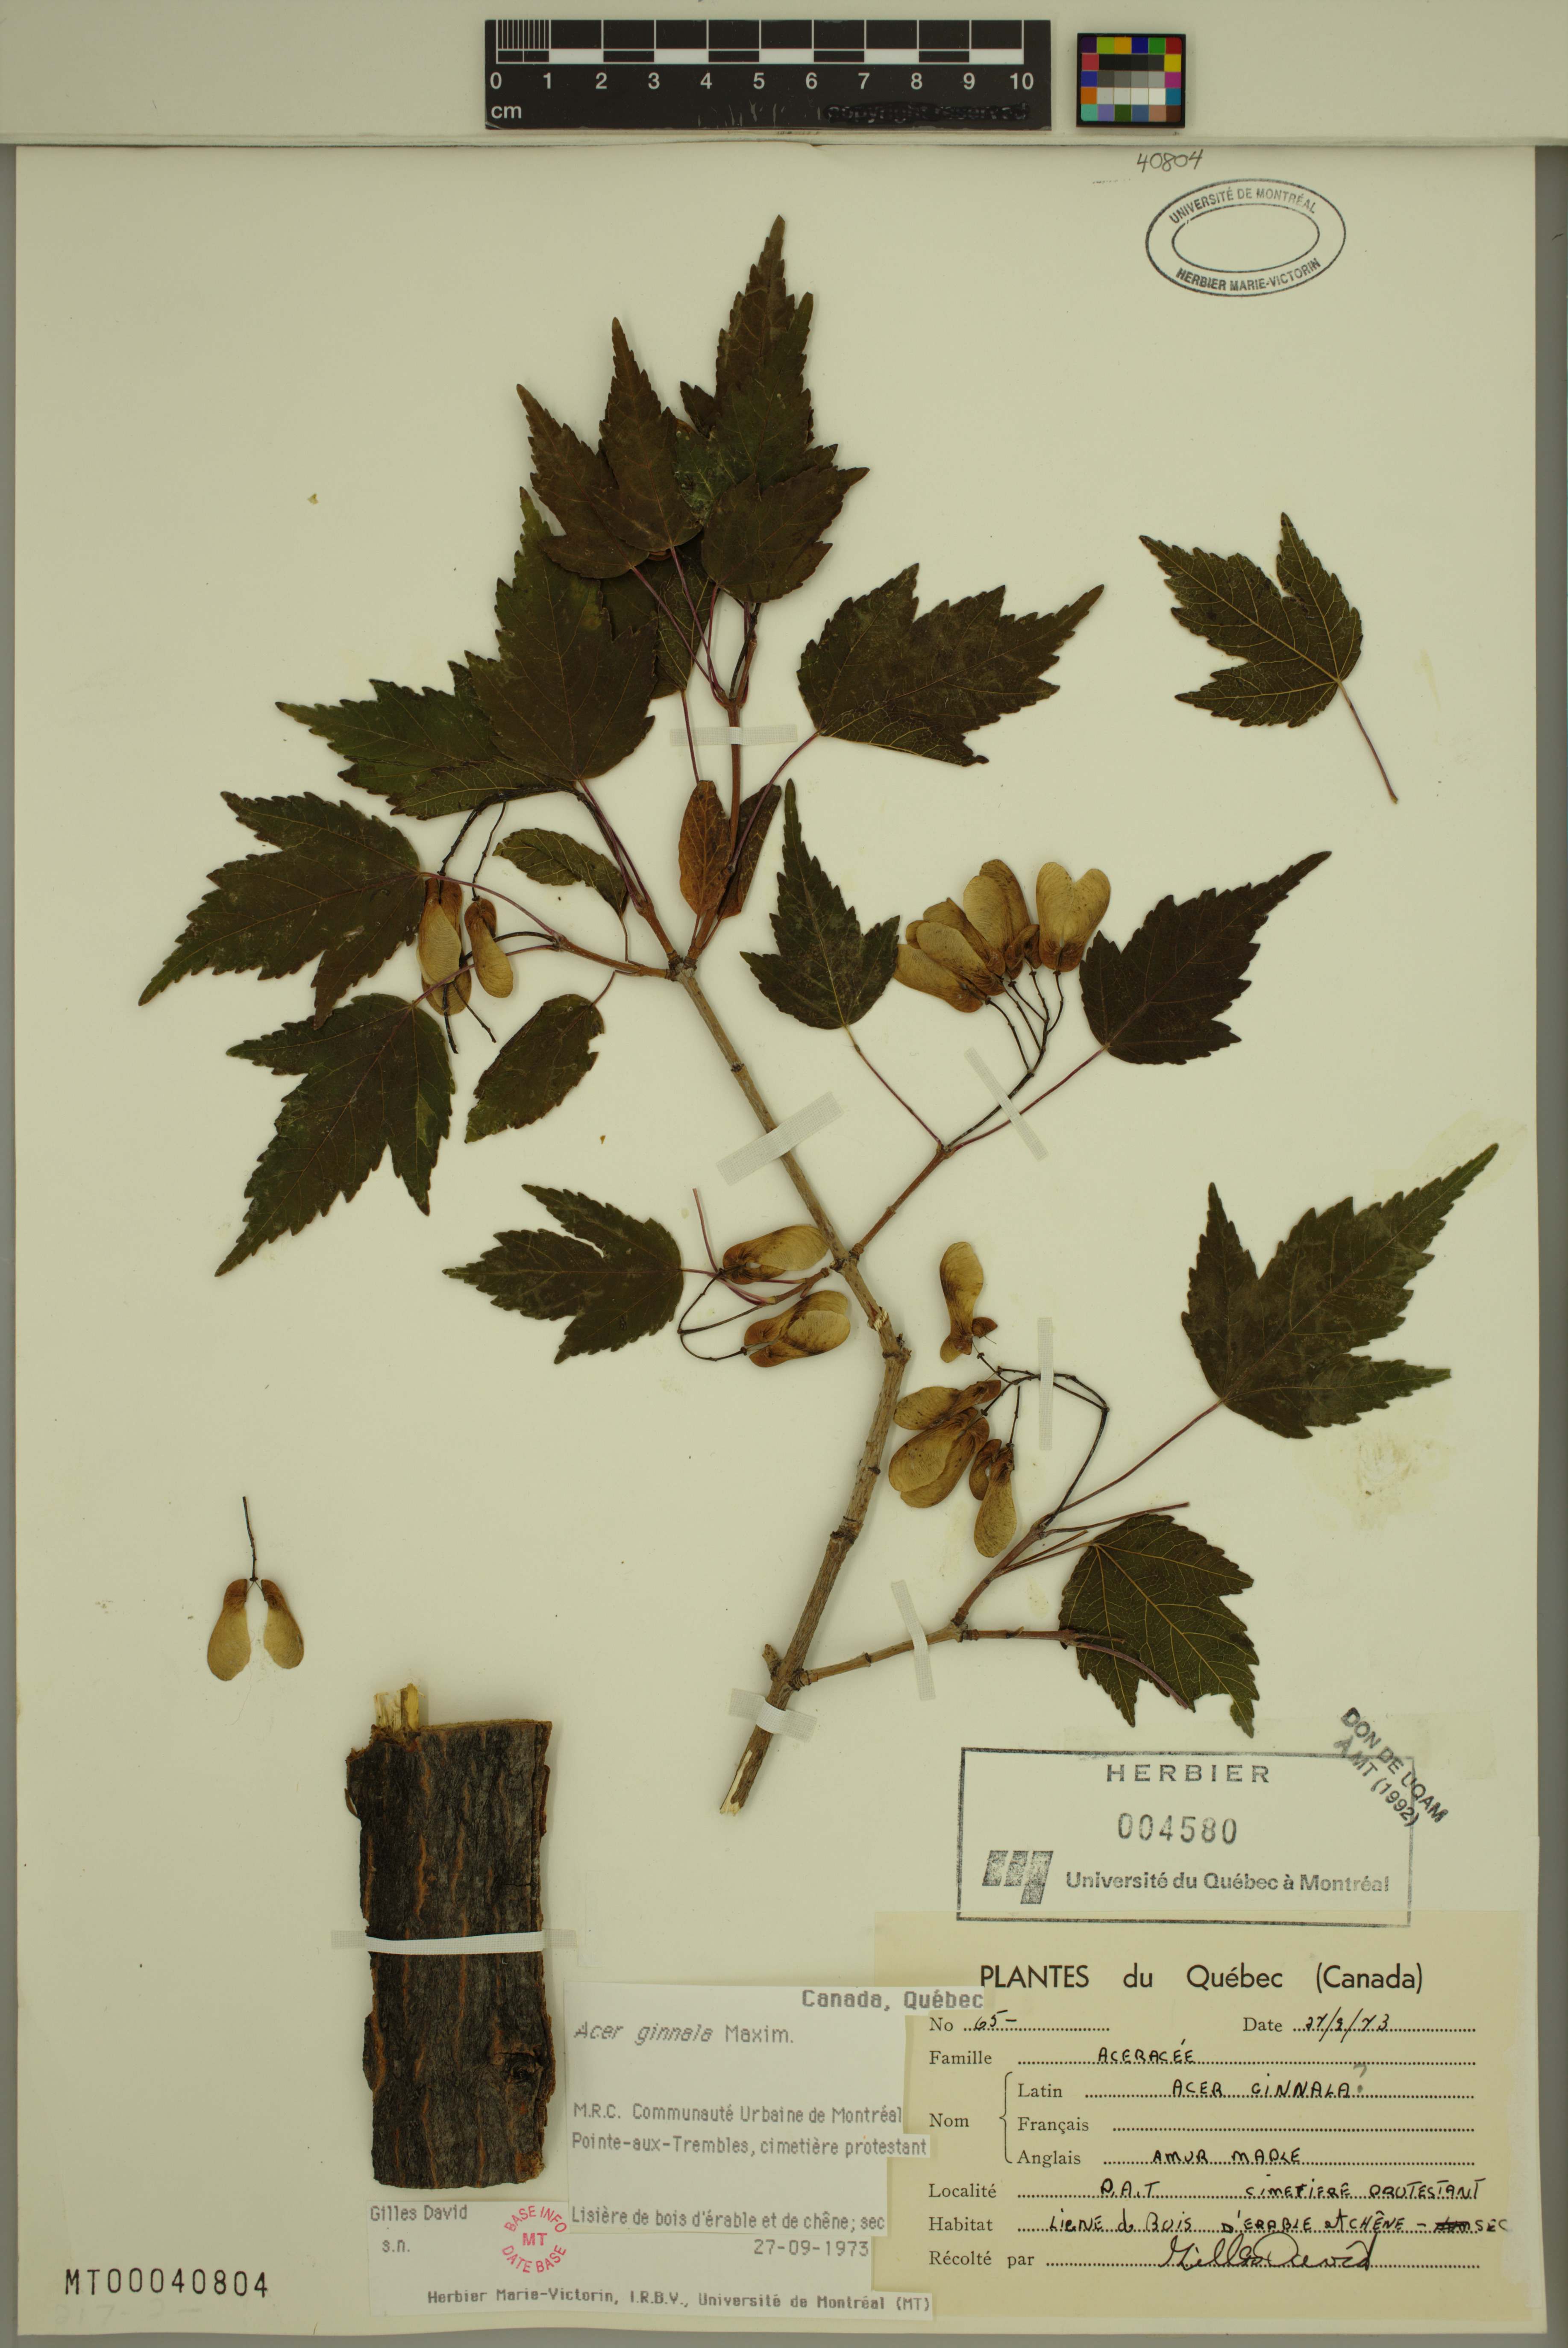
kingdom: Plantae
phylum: Tracheophyta
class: Magnoliopsida
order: Sapindales
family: Sapindaceae
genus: Acer
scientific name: Acer tataricum
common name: Tartar maple
